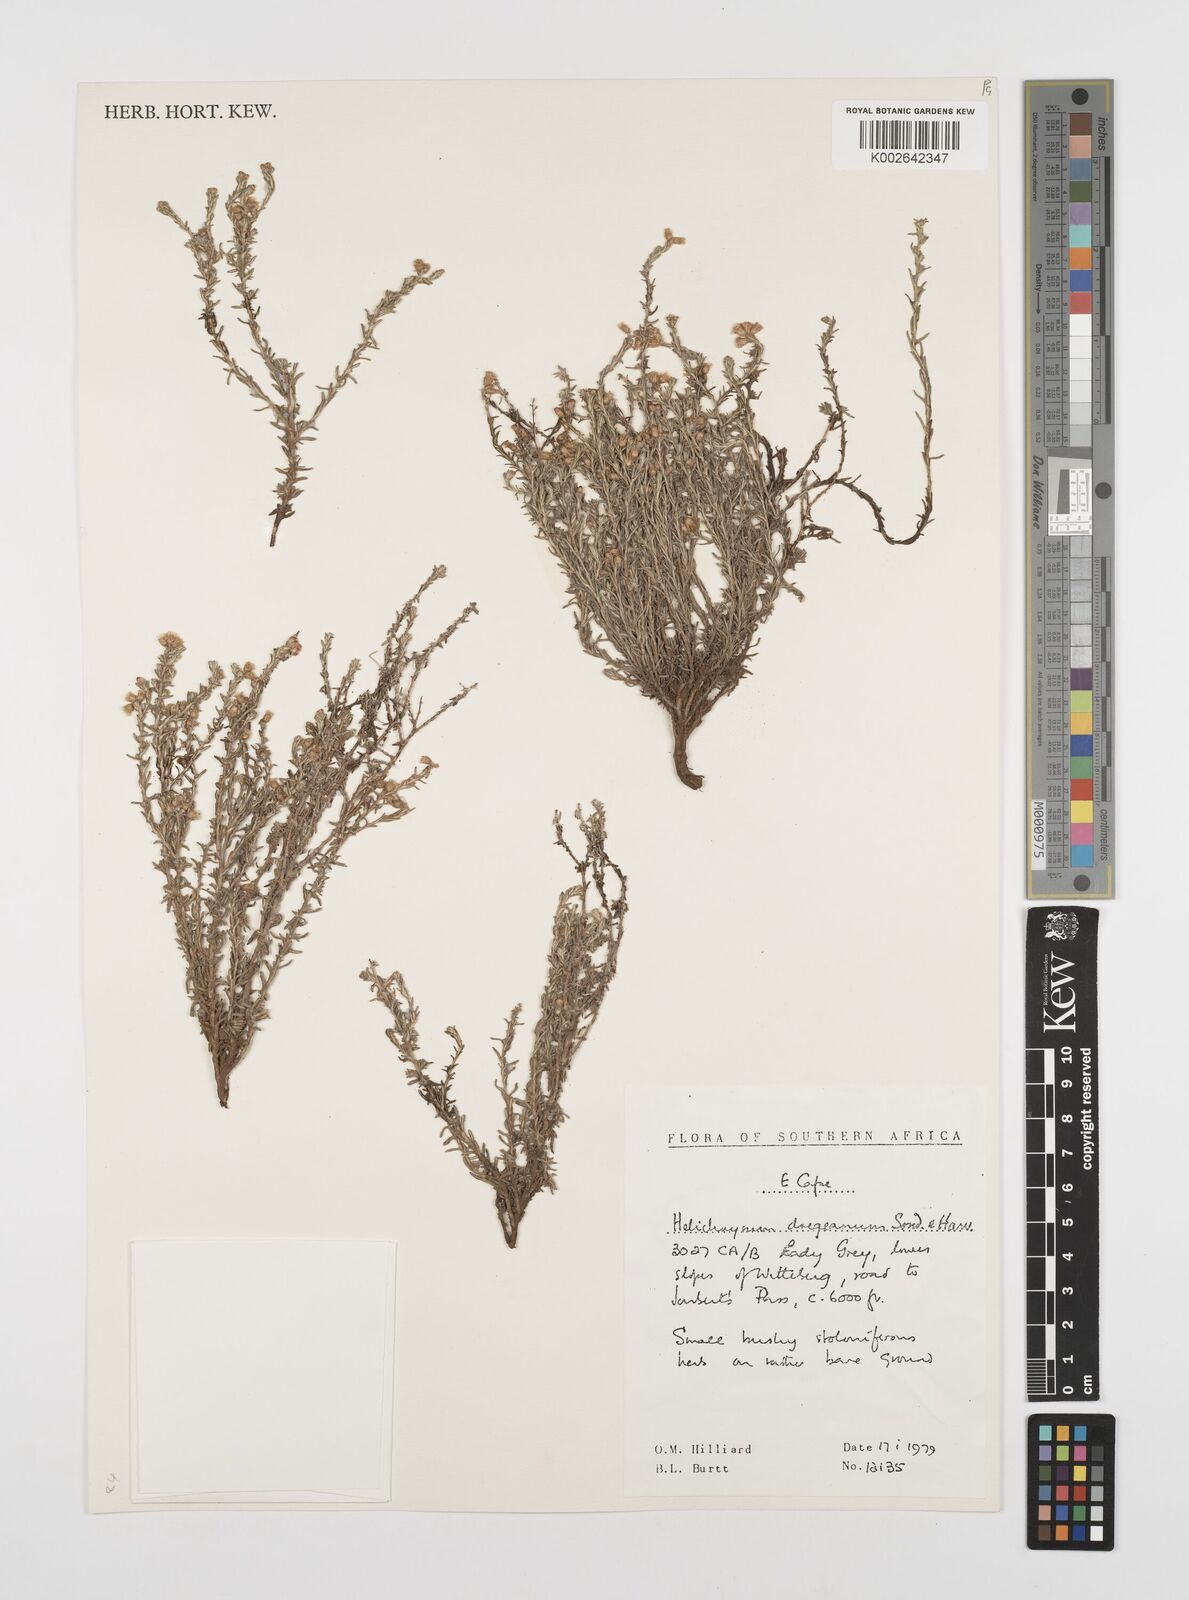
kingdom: Plantae
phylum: Tracheophyta
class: Magnoliopsida
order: Asterales
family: Asteraceae
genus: Helichrysum
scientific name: Helichrysum dregeanum
